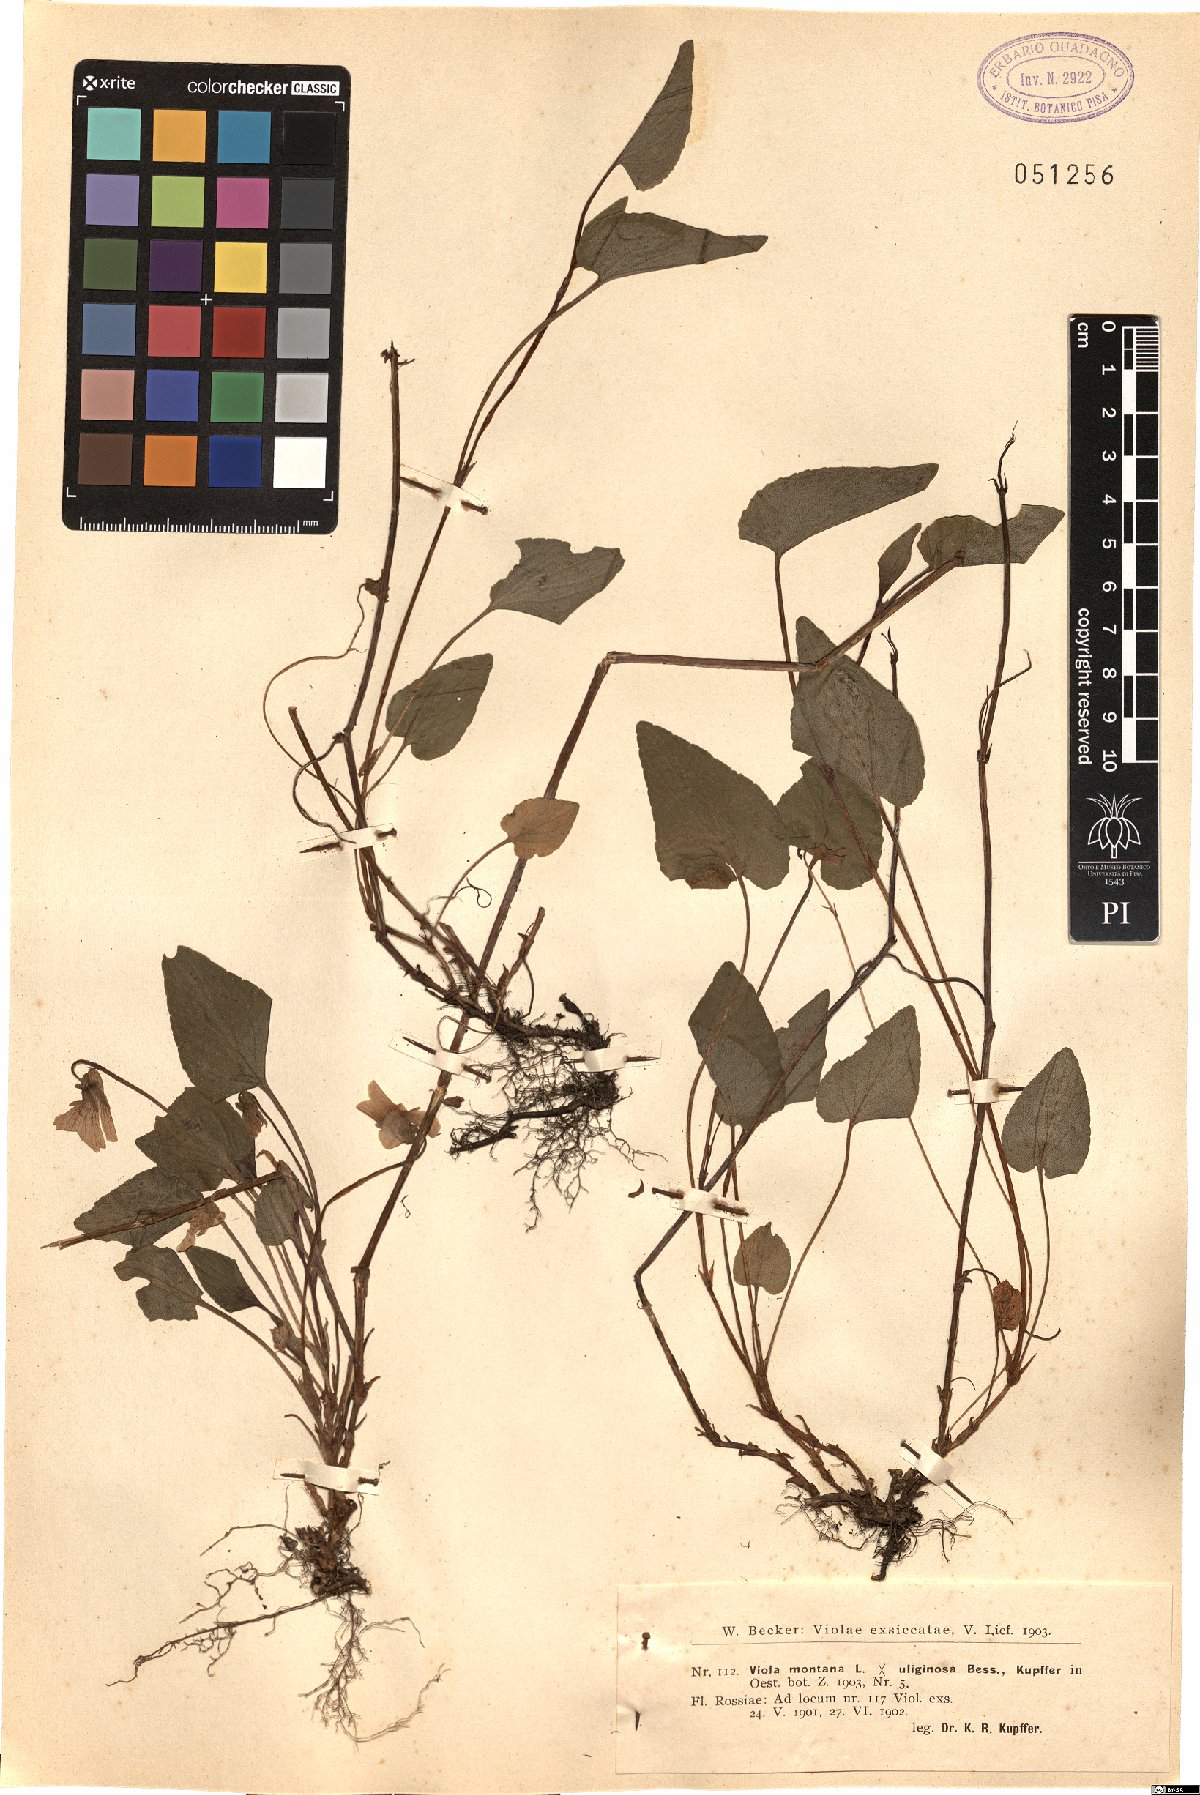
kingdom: Plantae
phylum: Tracheophyta
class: Magnoliopsida
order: Malpighiales
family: Violaceae
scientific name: Violaceae
